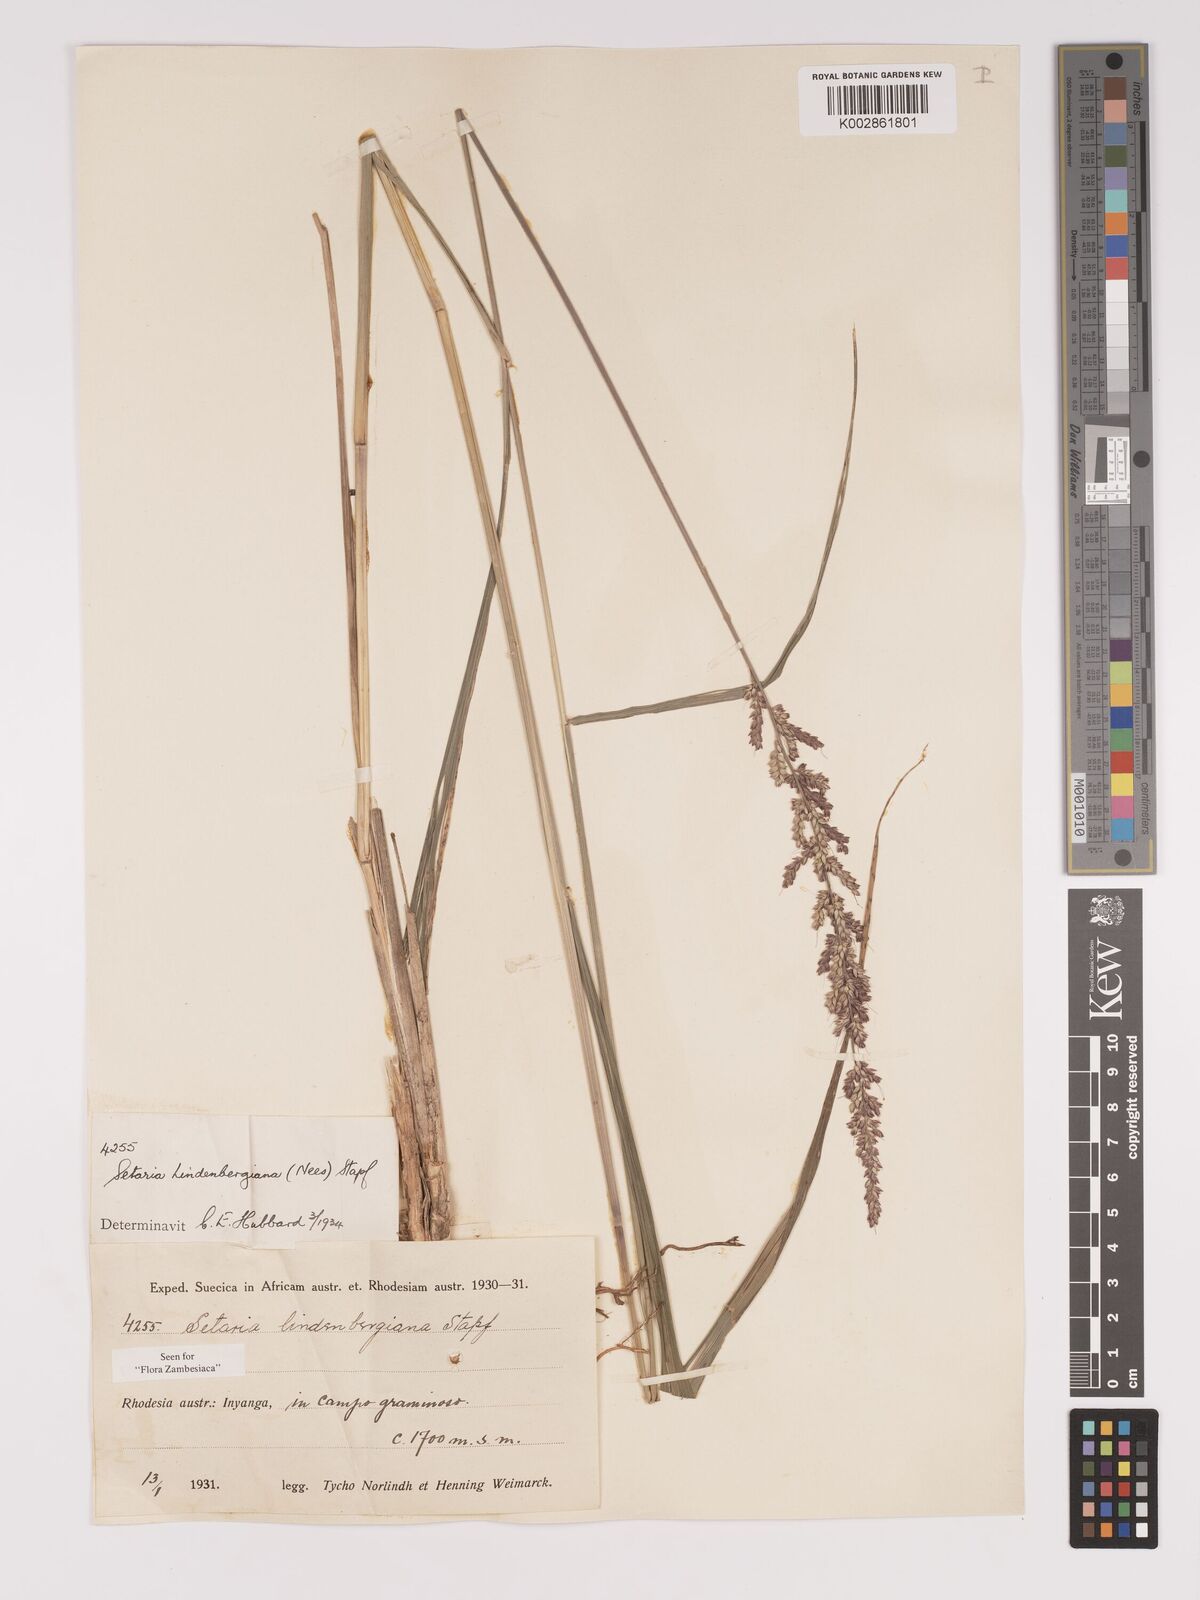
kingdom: Plantae
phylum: Tracheophyta
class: Liliopsida
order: Poales
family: Poaceae
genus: Setaria
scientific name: Setaria lindenbergiana
